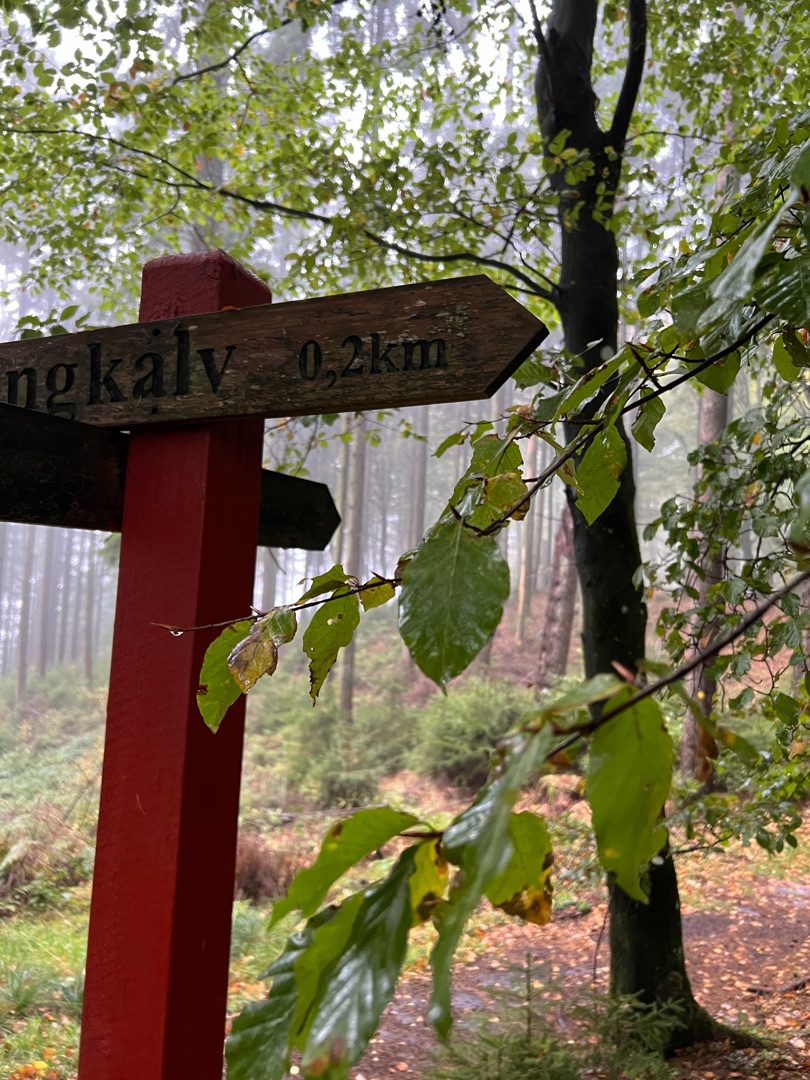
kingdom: Plantae
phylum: Tracheophyta
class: Magnoliopsida
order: Fagales
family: Fagaceae
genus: Fagus
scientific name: Fagus sylvatica
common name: Bøg
